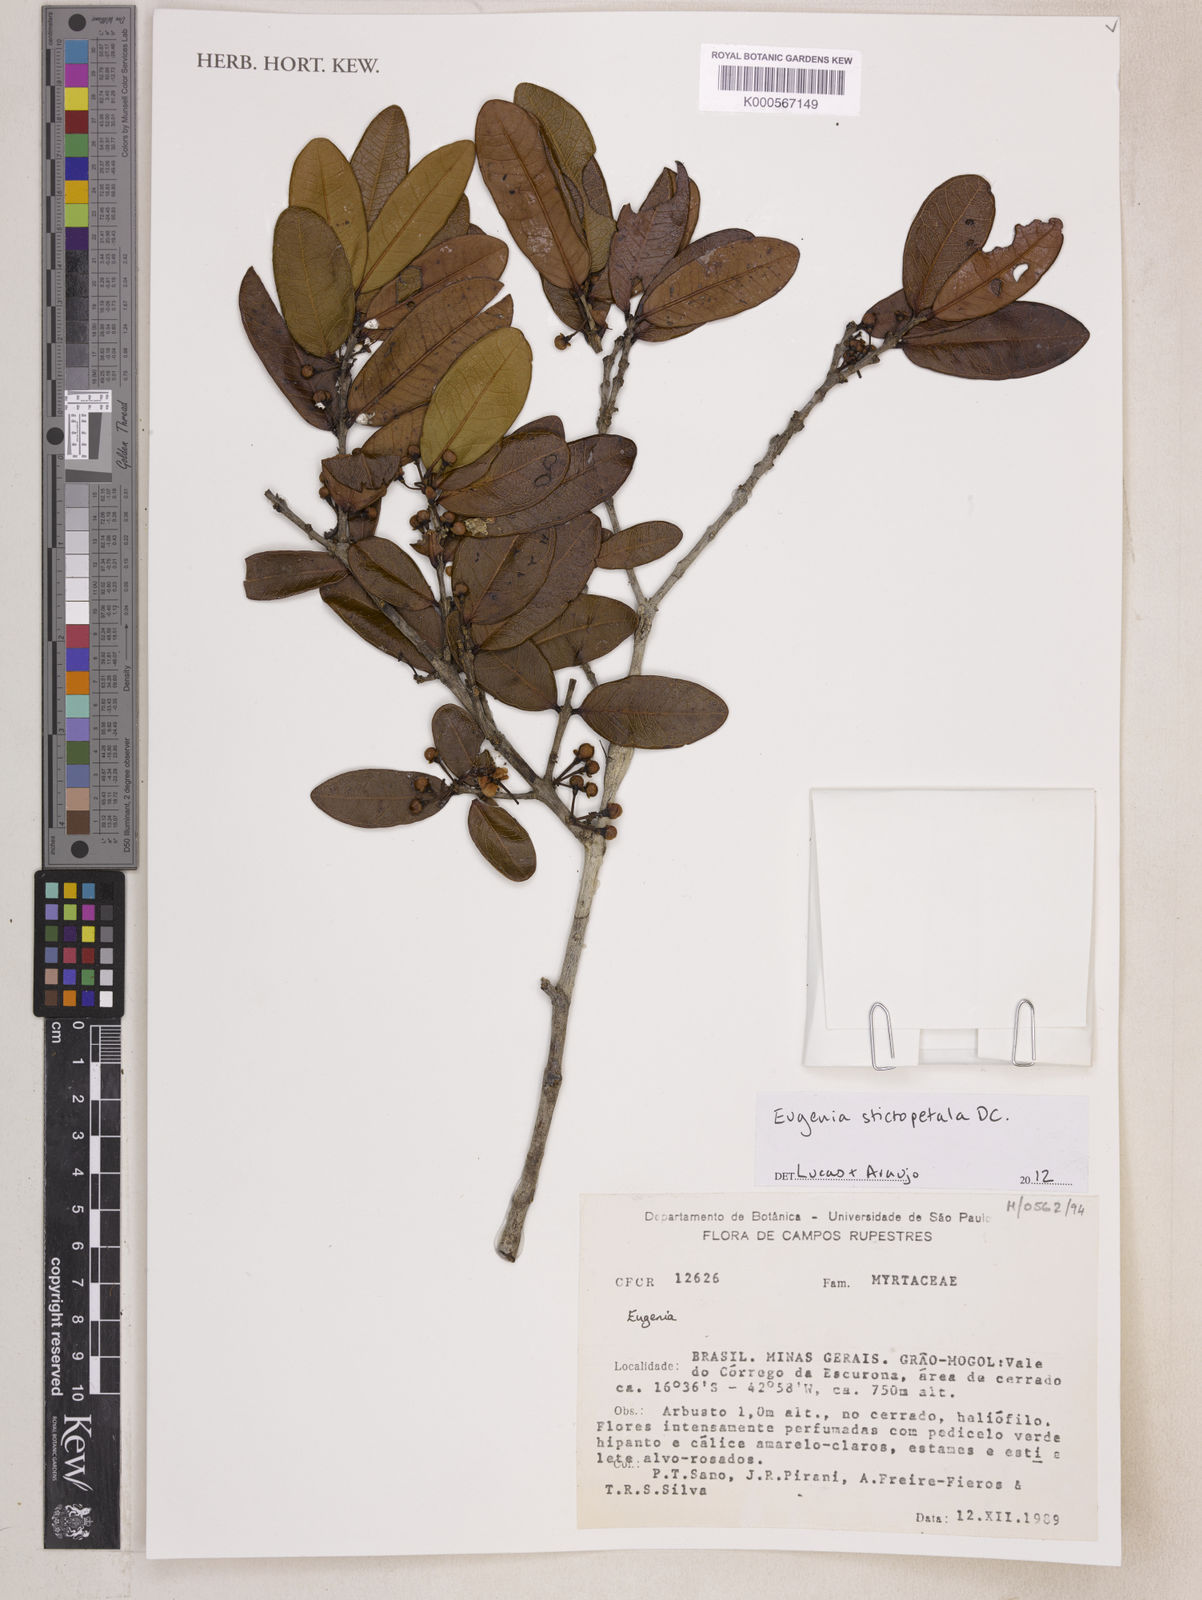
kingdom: Plantae
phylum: Tracheophyta
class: Magnoliopsida
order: Myrtales
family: Myrtaceae
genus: Eugenia
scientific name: Eugenia
